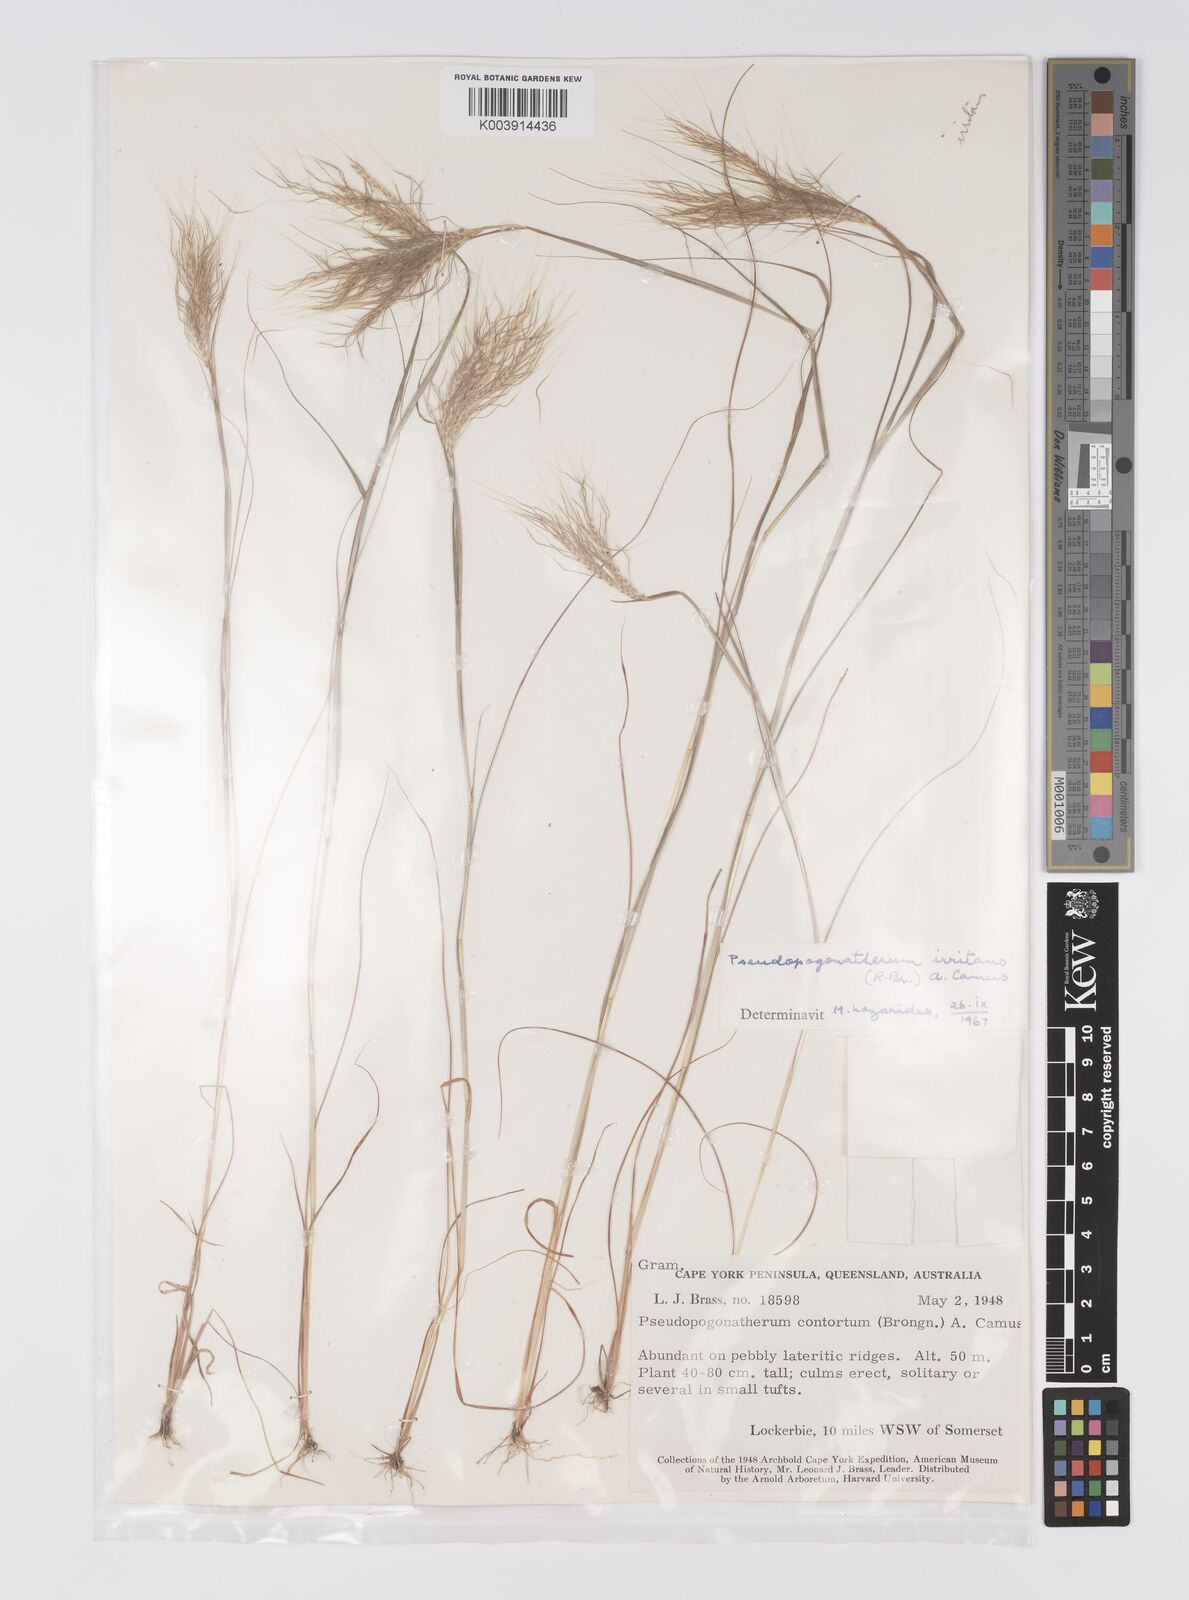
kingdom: Plantae
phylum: Tracheophyta
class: Liliopsida
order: Poales
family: Poaceae
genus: Pseudopogonatherum
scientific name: Pseudopogonatherum irritans
